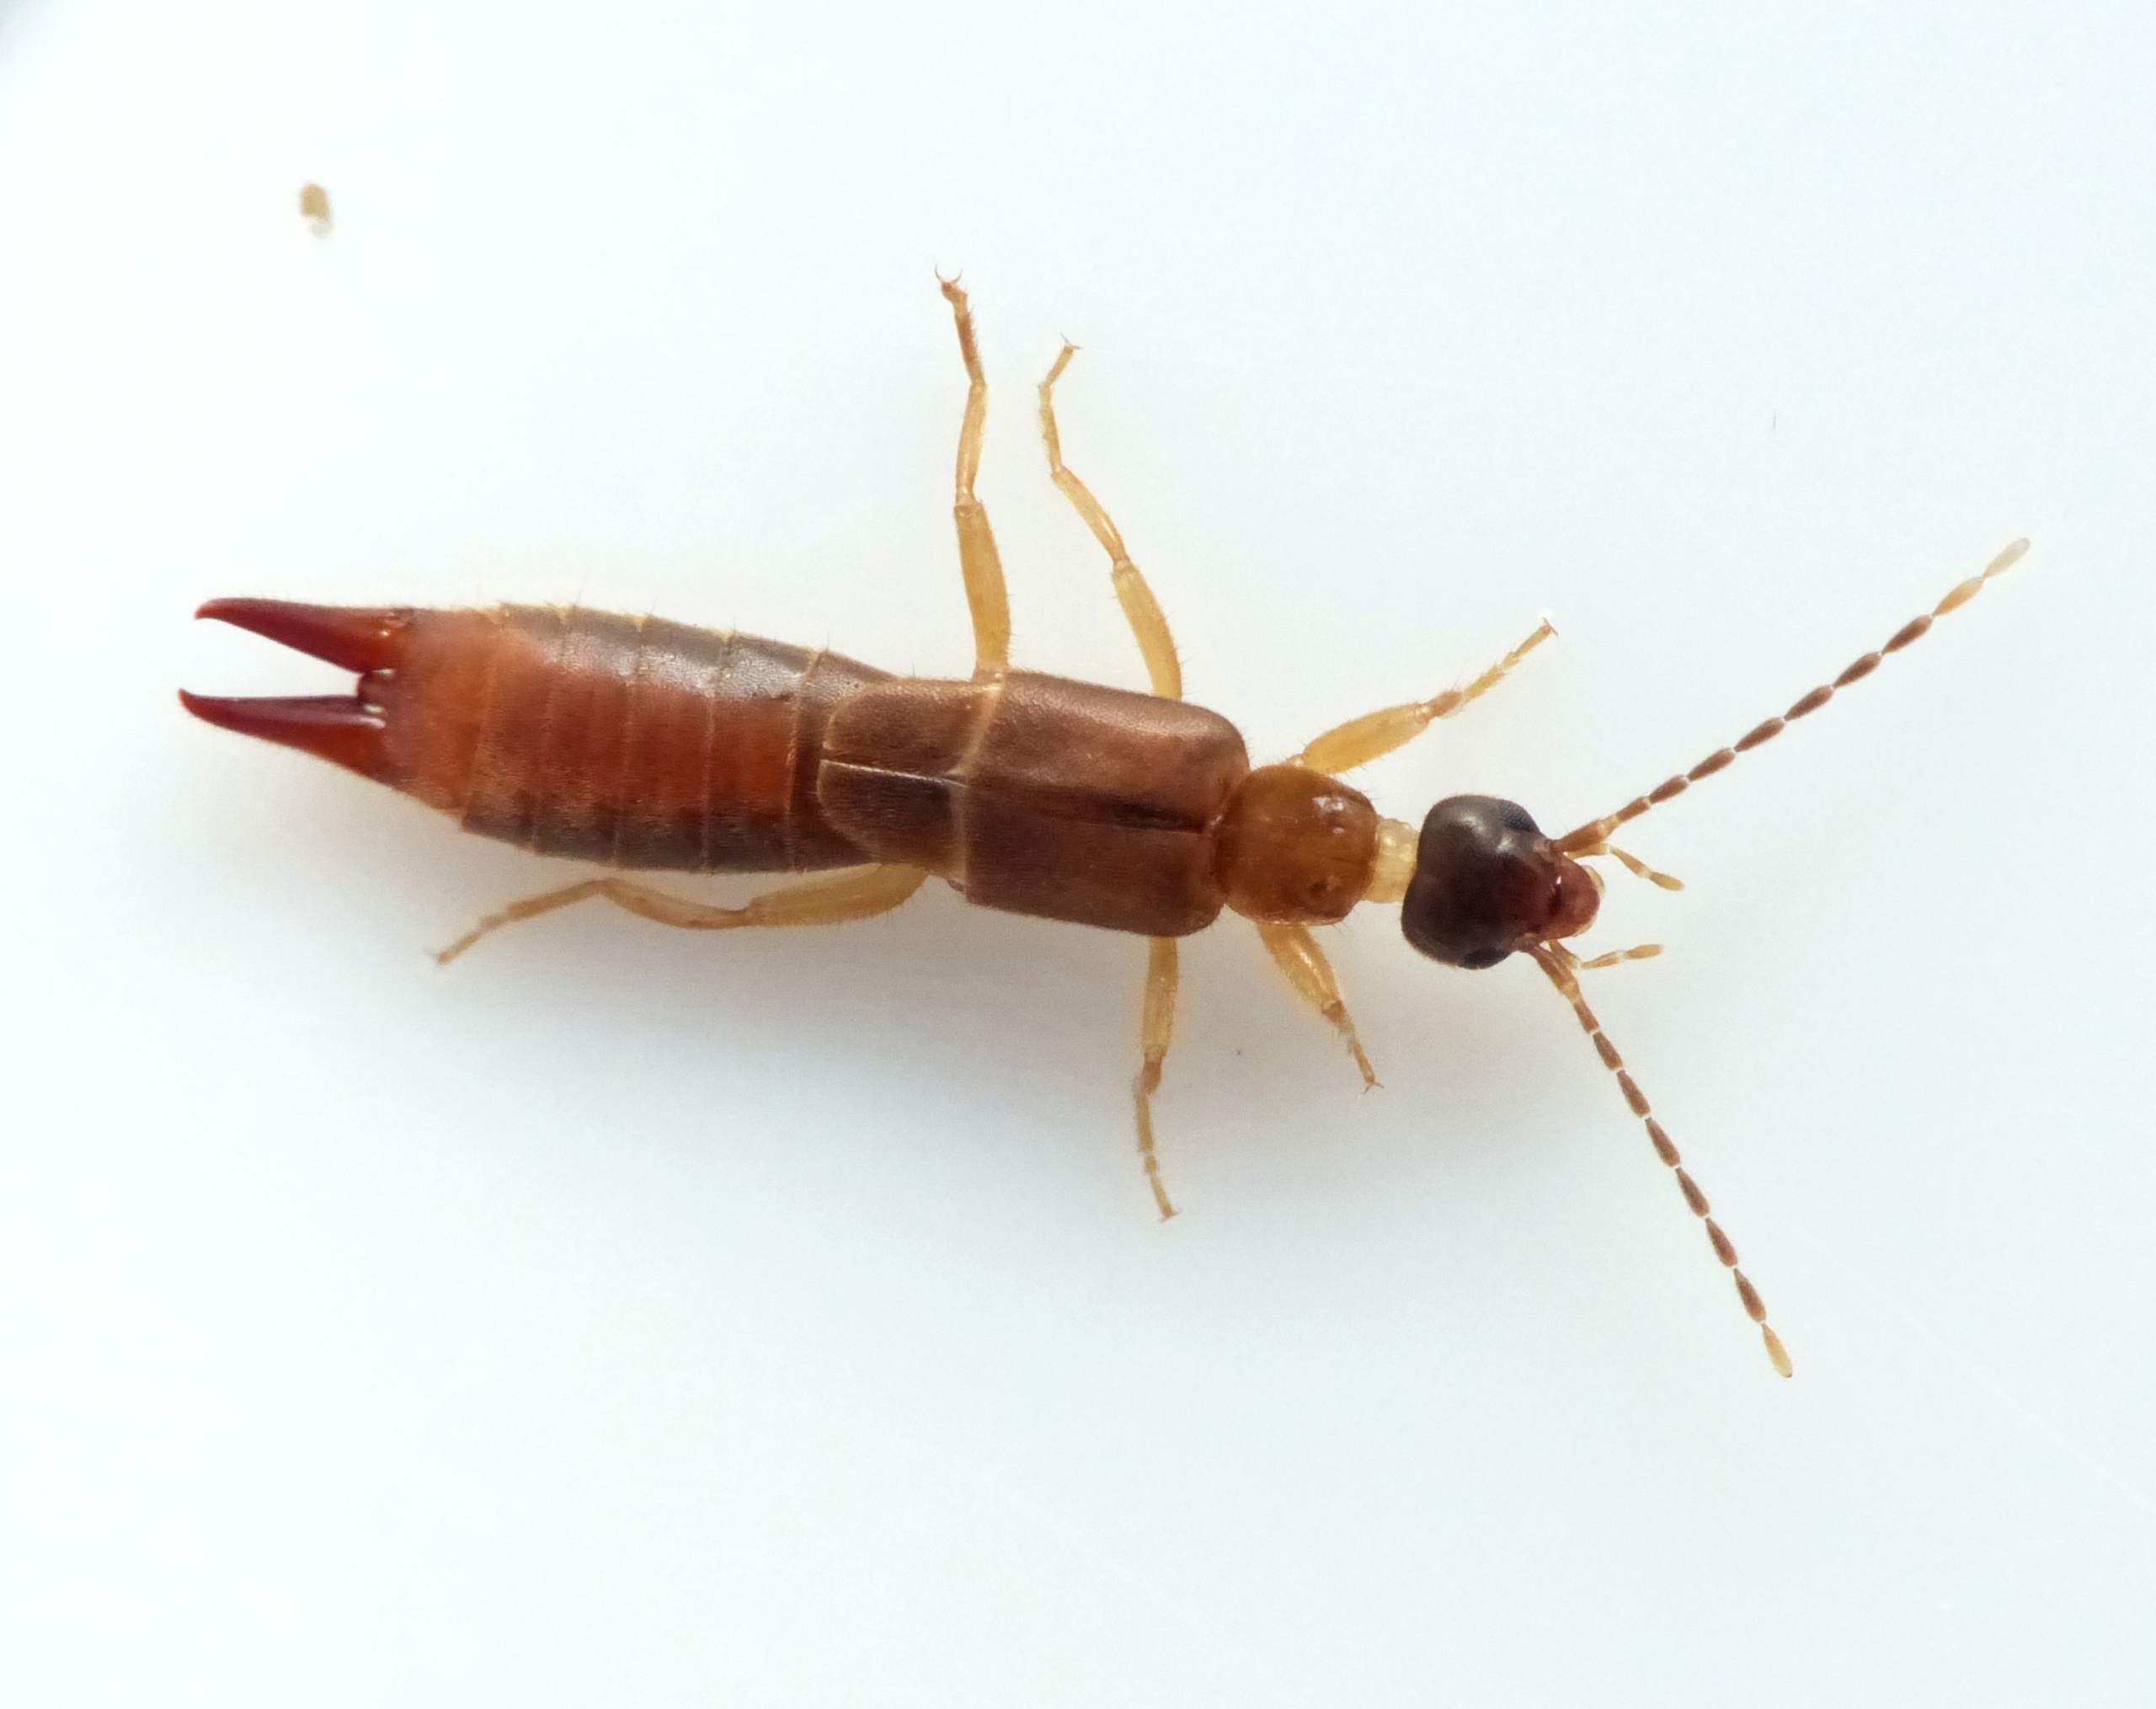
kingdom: Animalia
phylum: Arthropoda
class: Insecta
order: Dermaptera
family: Spongiphoridae
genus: Labia
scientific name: Labia minor
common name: Lille ørentvist
